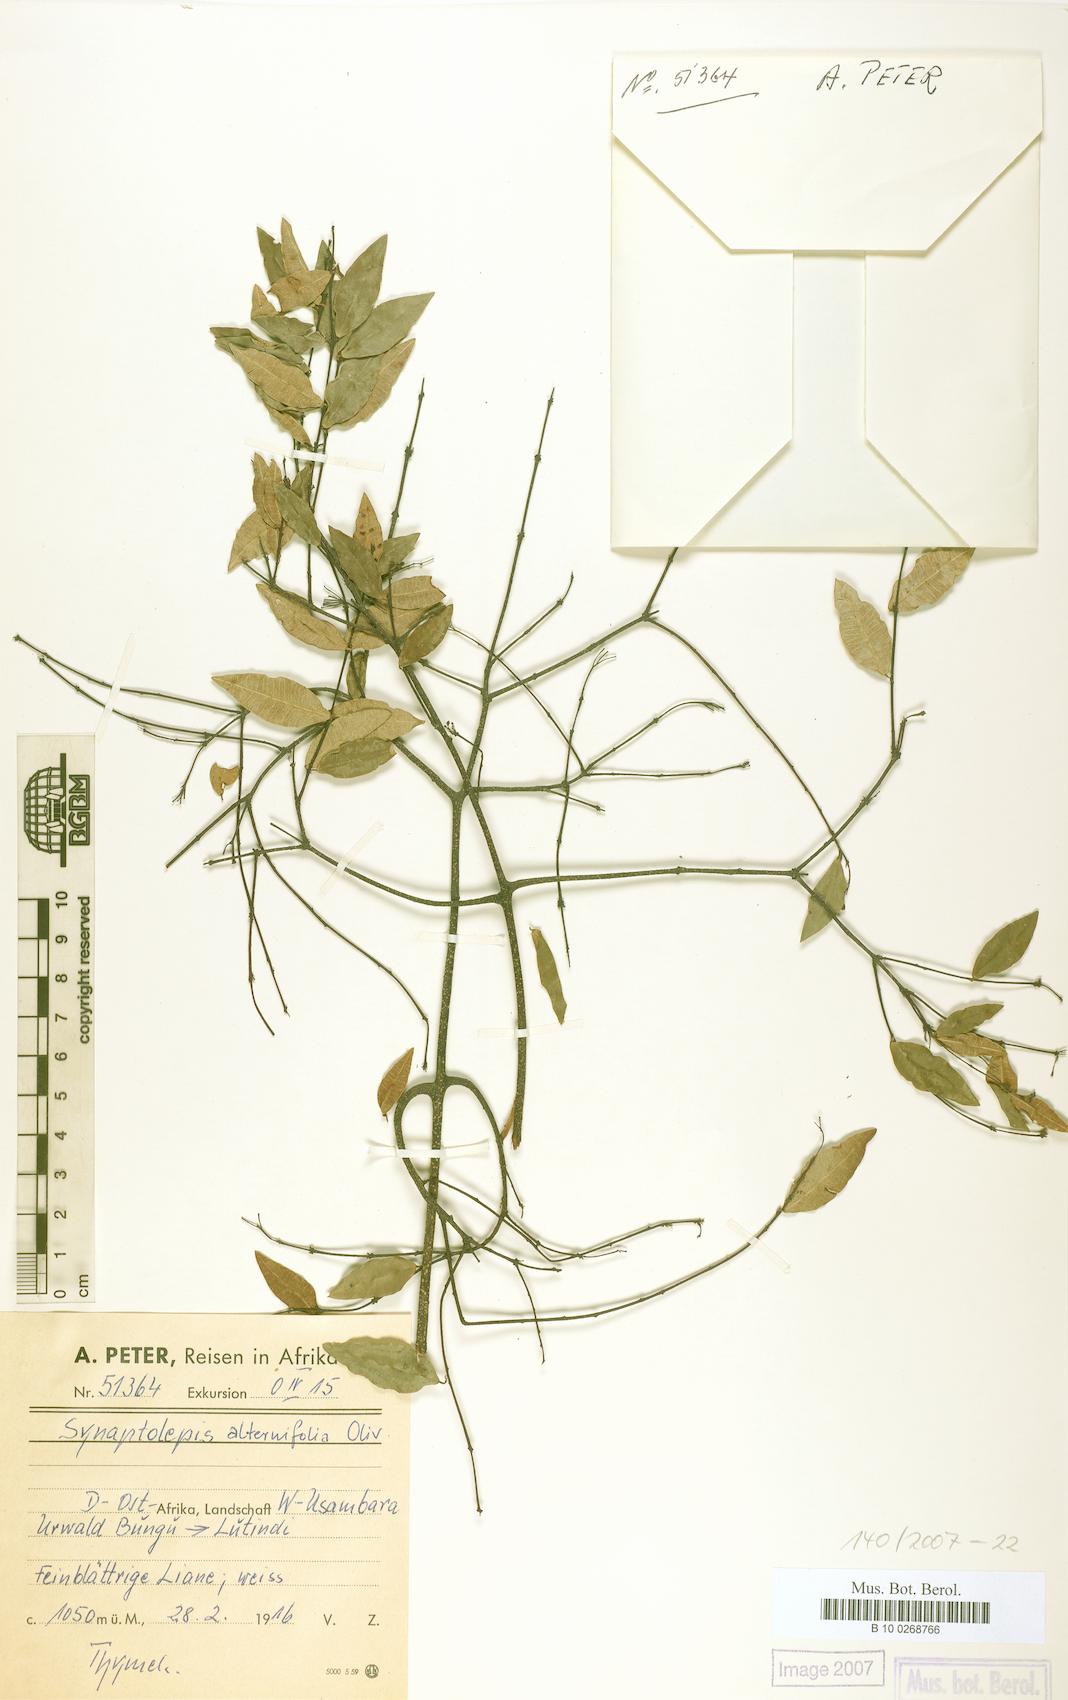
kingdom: Plantae
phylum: Tracheophyta
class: Magnoliopsida
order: Malvales
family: Thymelaeaceae
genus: Synaptolepis
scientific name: Synaptolepis alternifolia
